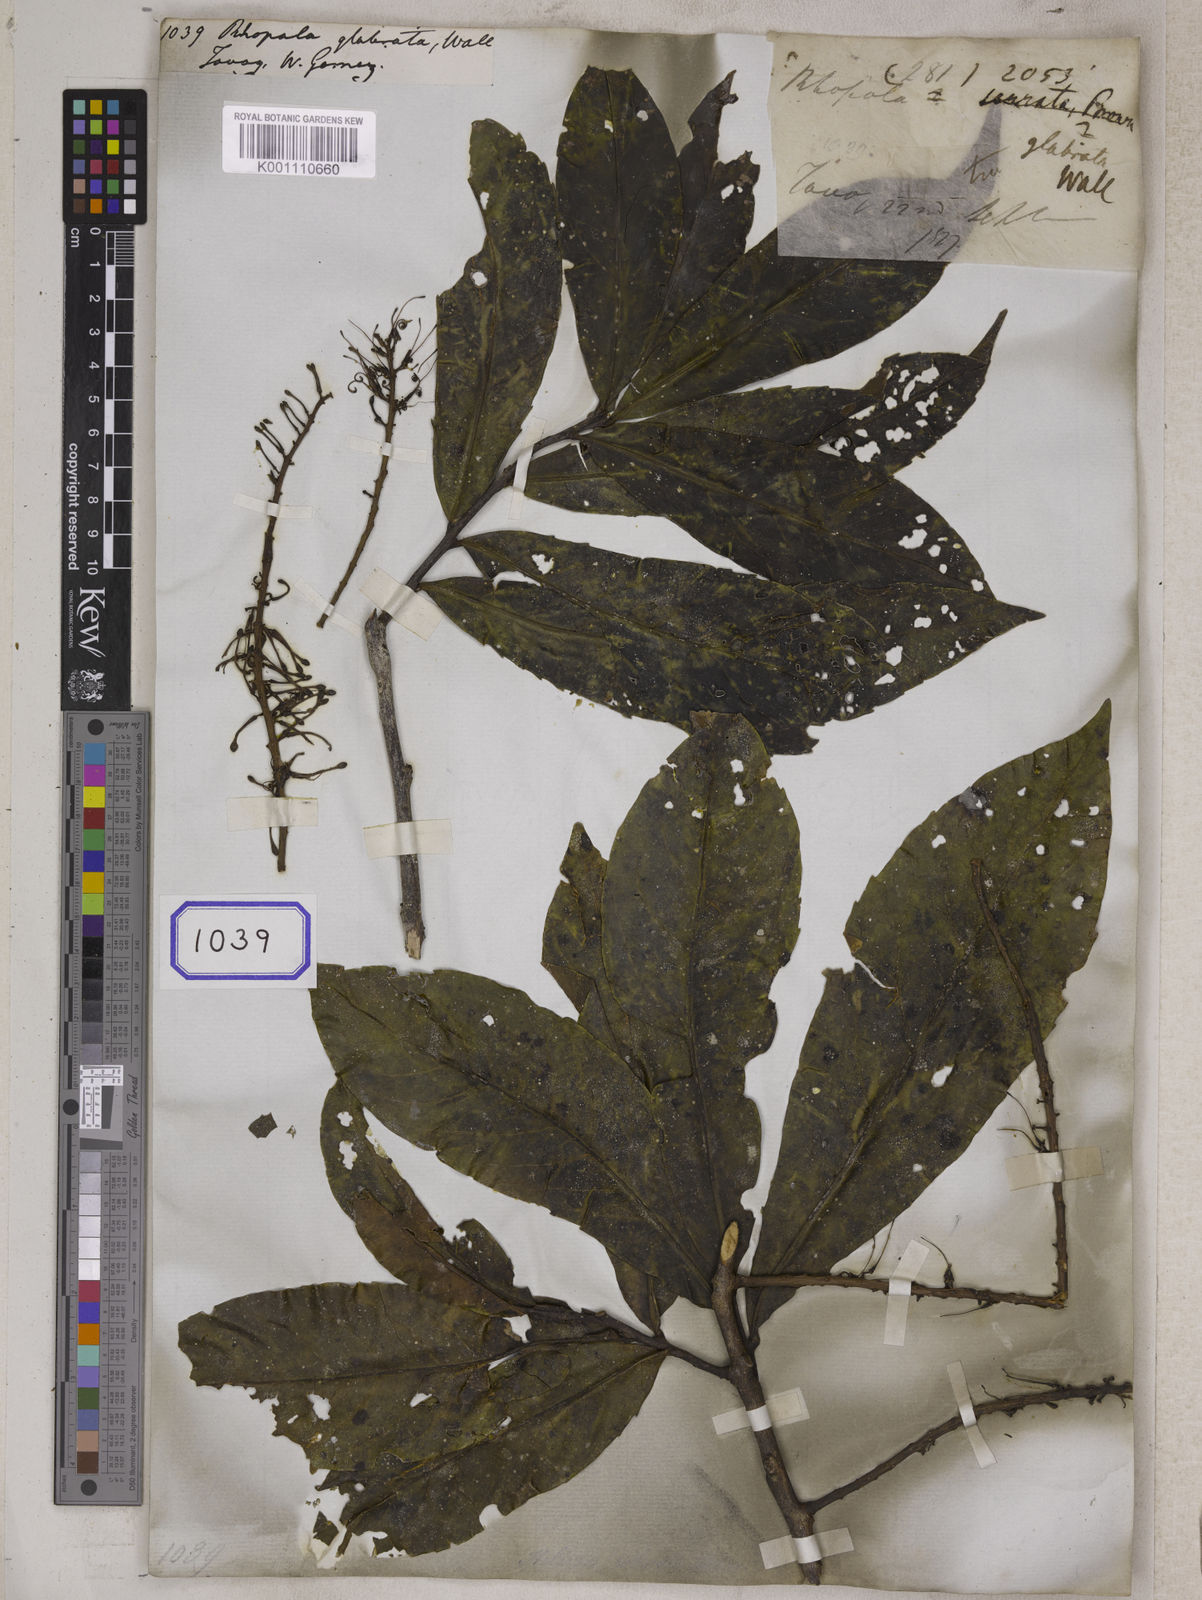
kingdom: Plantae
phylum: Tracheophyta
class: Magnoliopsida
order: Proteales
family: Proteaceae
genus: Helicia
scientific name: Helicia robusta
